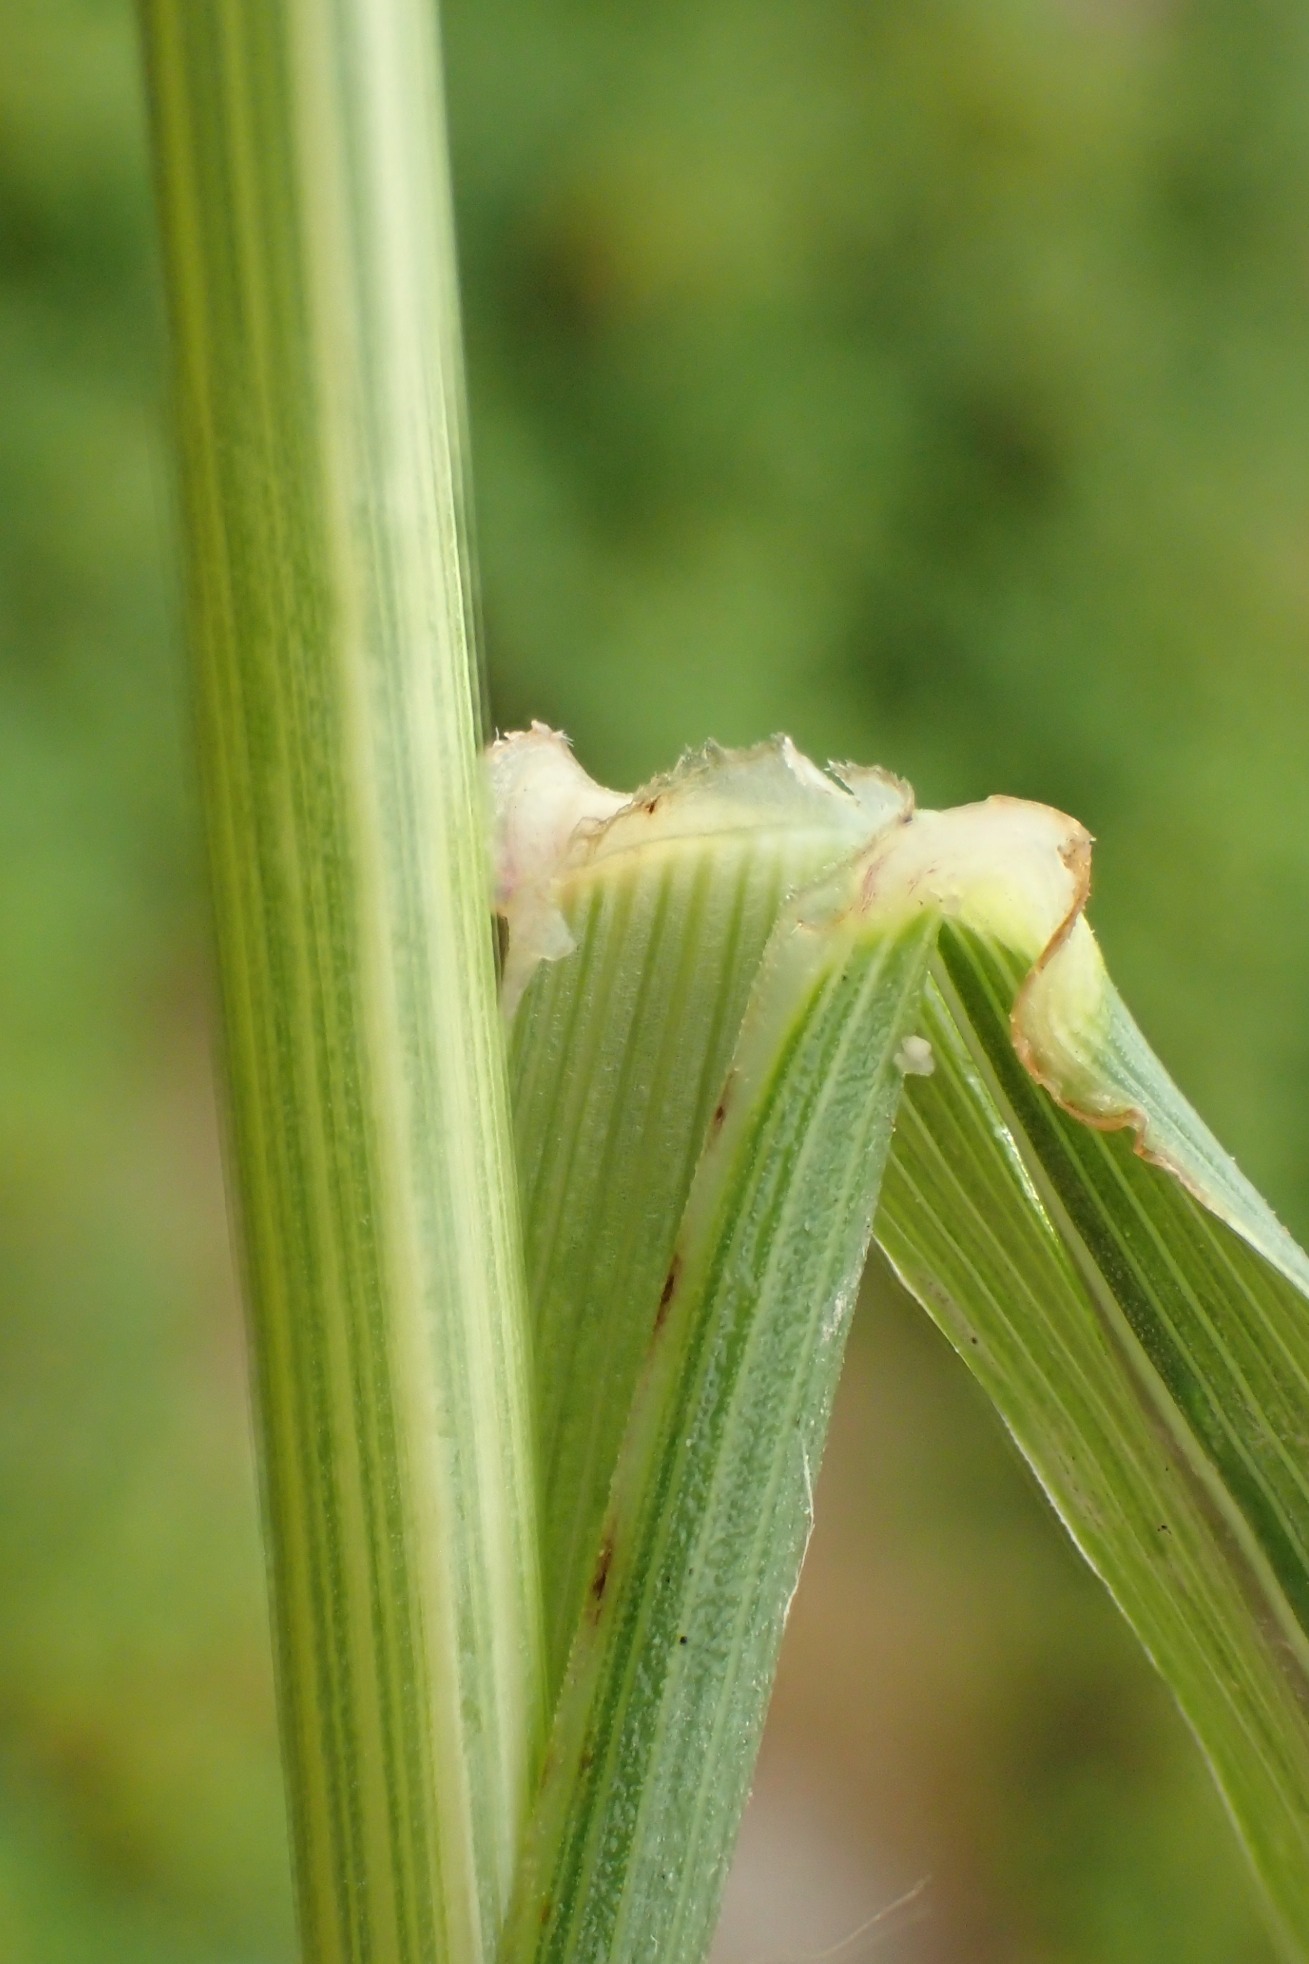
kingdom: Plantae
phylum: Tracheophyta
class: Liliopsida
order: Poales
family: Poaceae
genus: Lolium
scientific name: Lolium arundinaceum
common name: Strand-svingel
